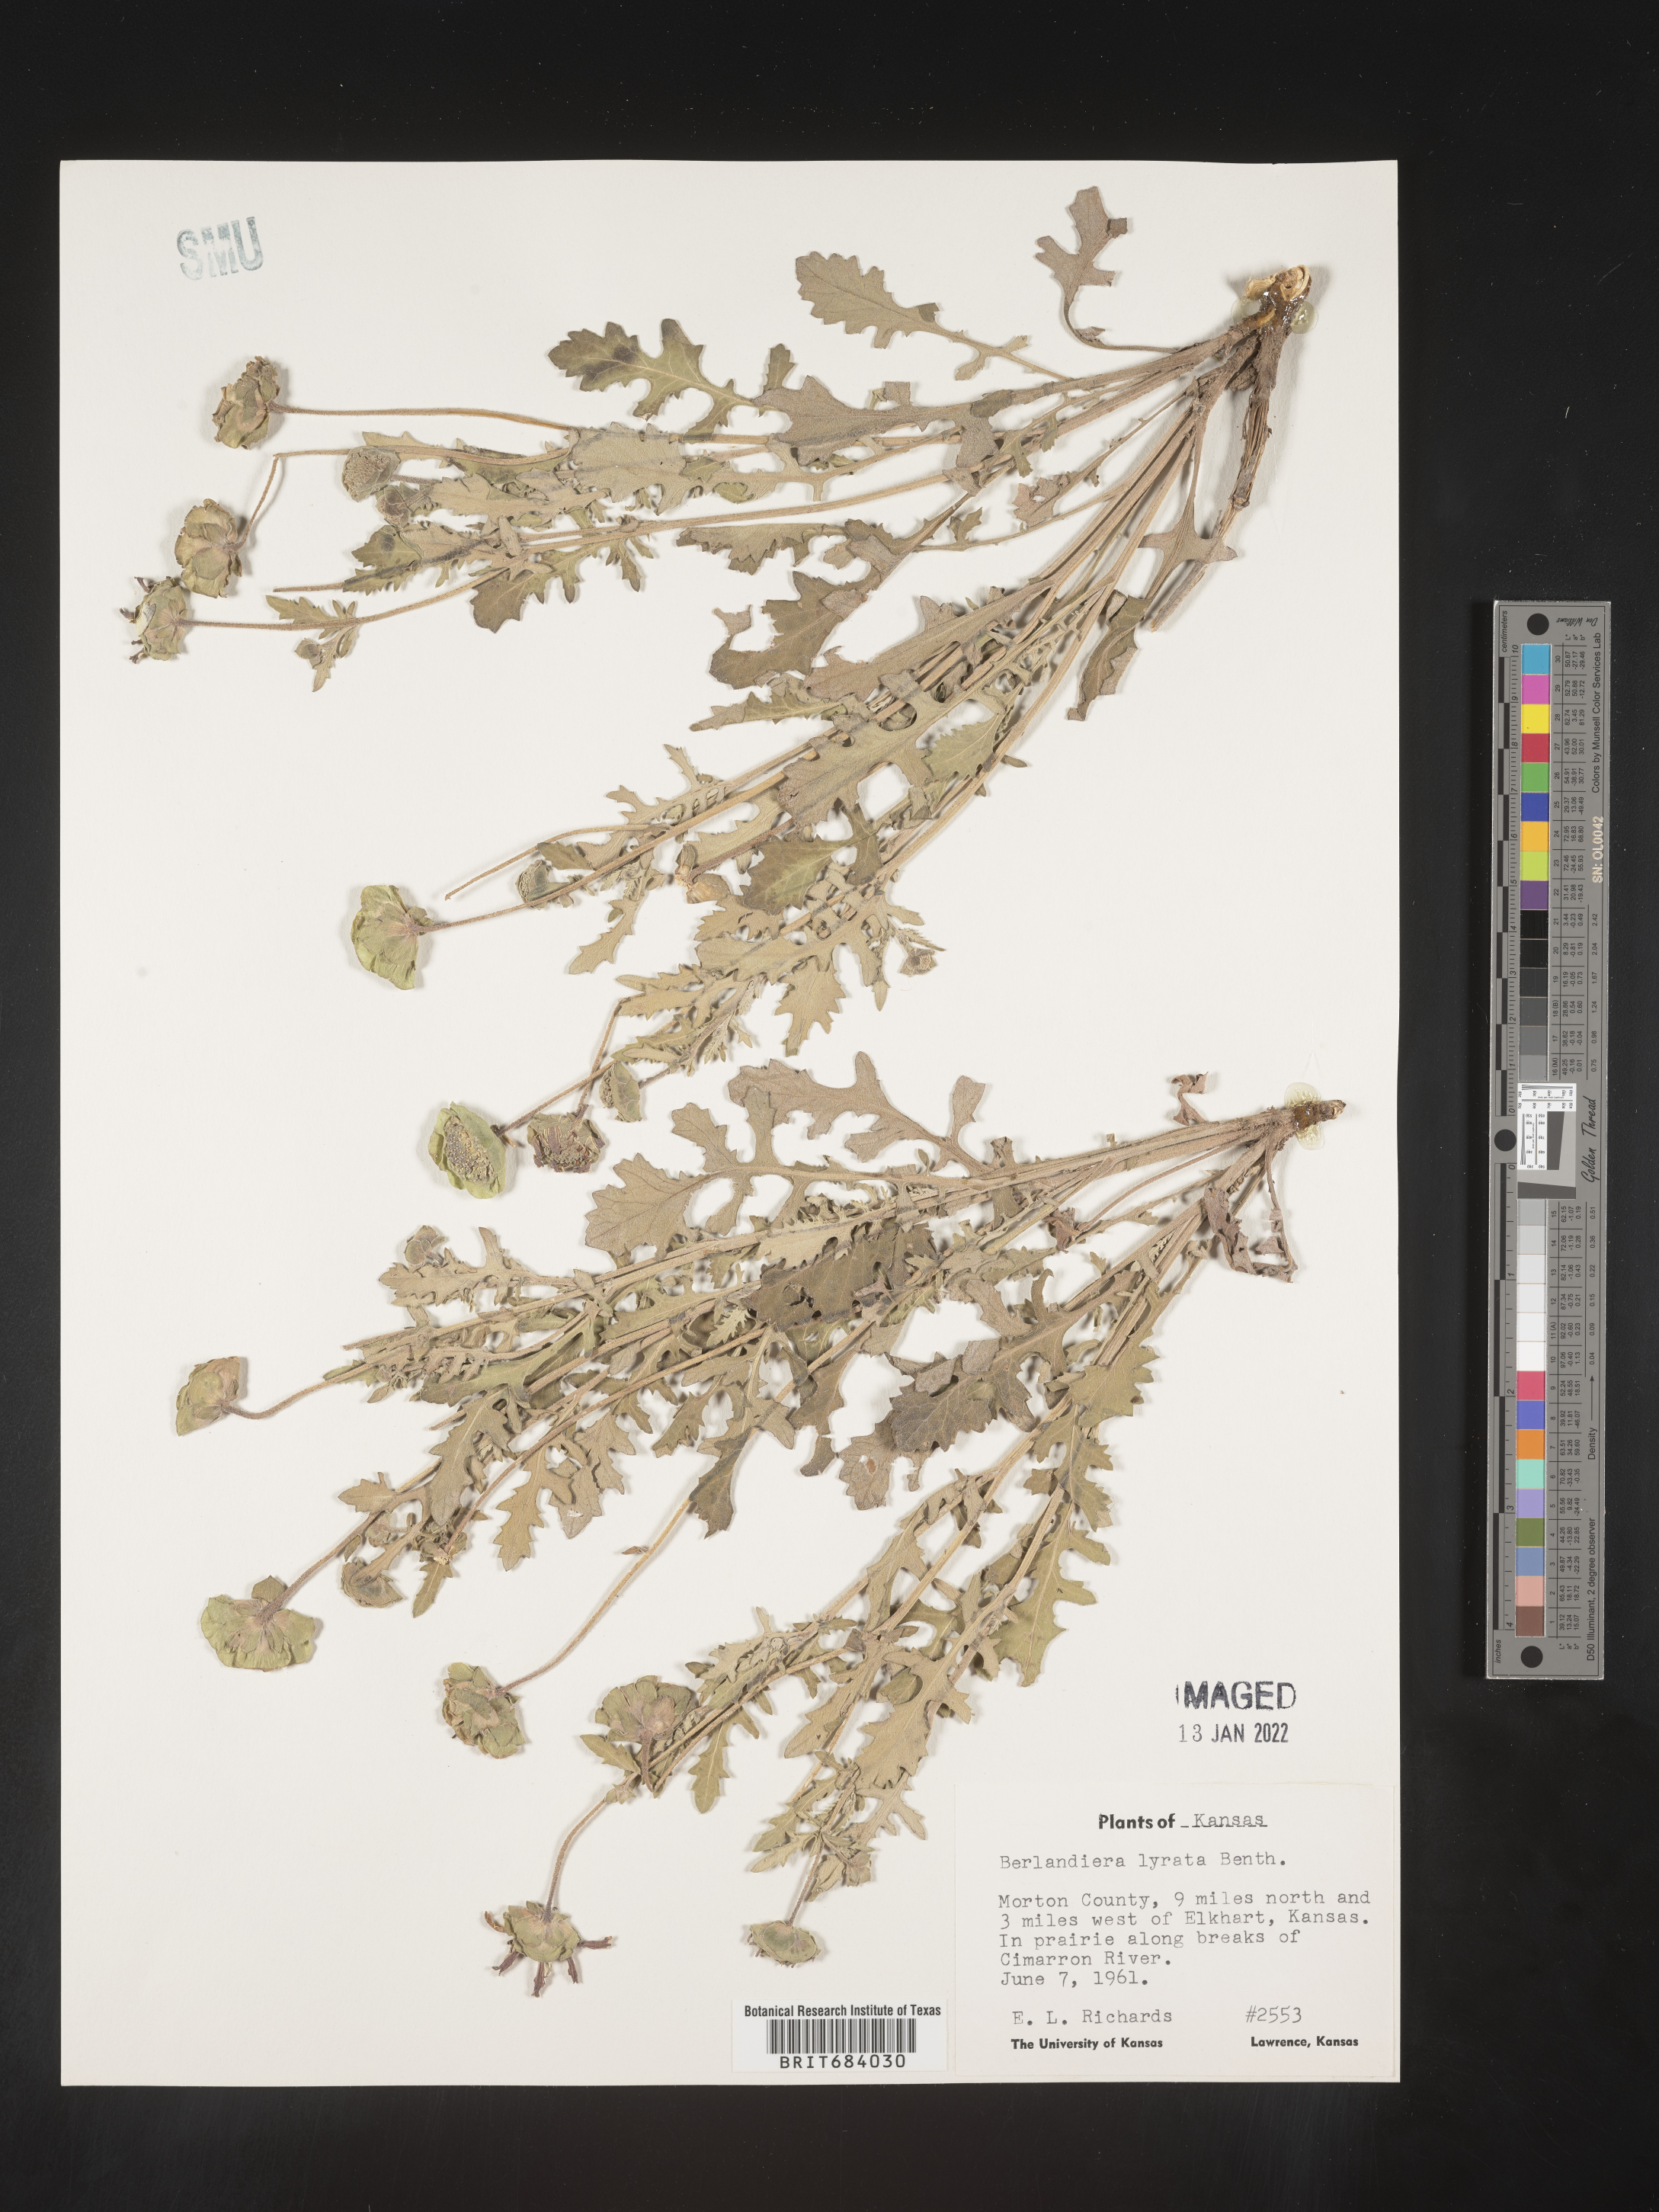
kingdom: Plantae
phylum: Tracheophyta
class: Magnoliopsida
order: Asterales
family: Asteraceae
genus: Berlandiera
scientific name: Berlandiera lyrata
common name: Chocolate-flower
